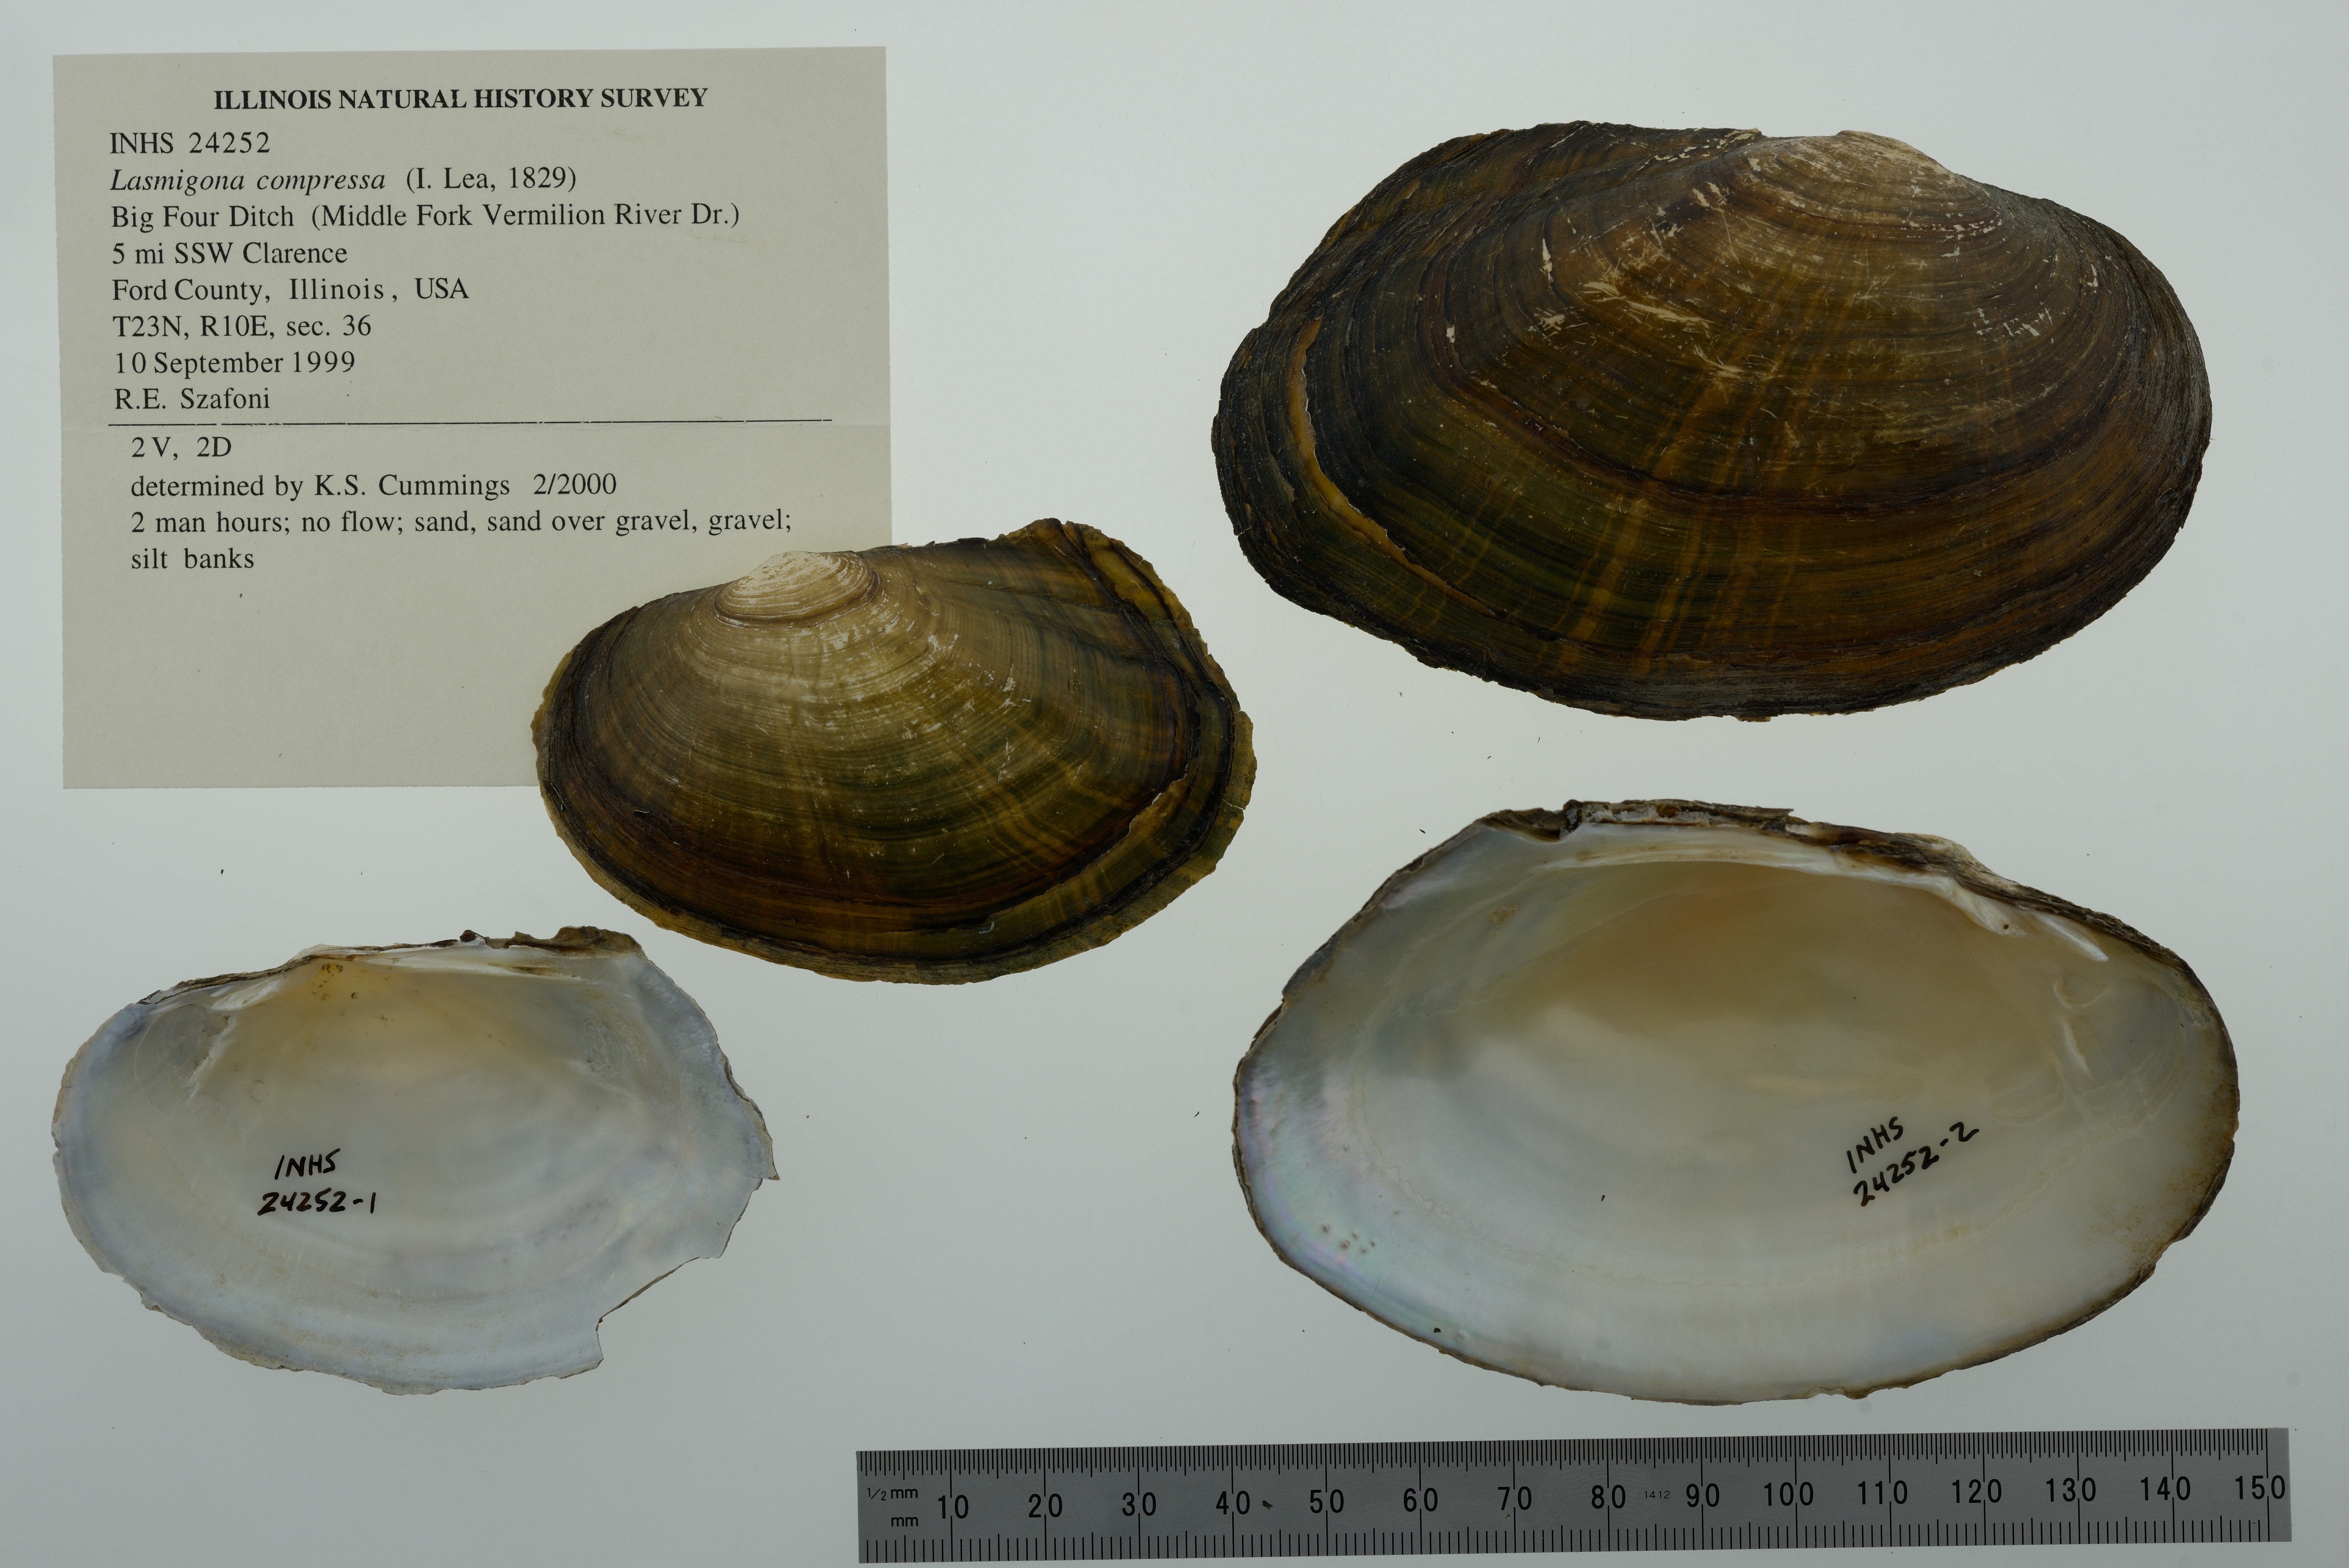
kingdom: Animalia
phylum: Mollusca
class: Bivalvia
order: Unionida
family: Unionidae
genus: Lasmigona
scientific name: Lasmigona compressa
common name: Creek heelsplitter
